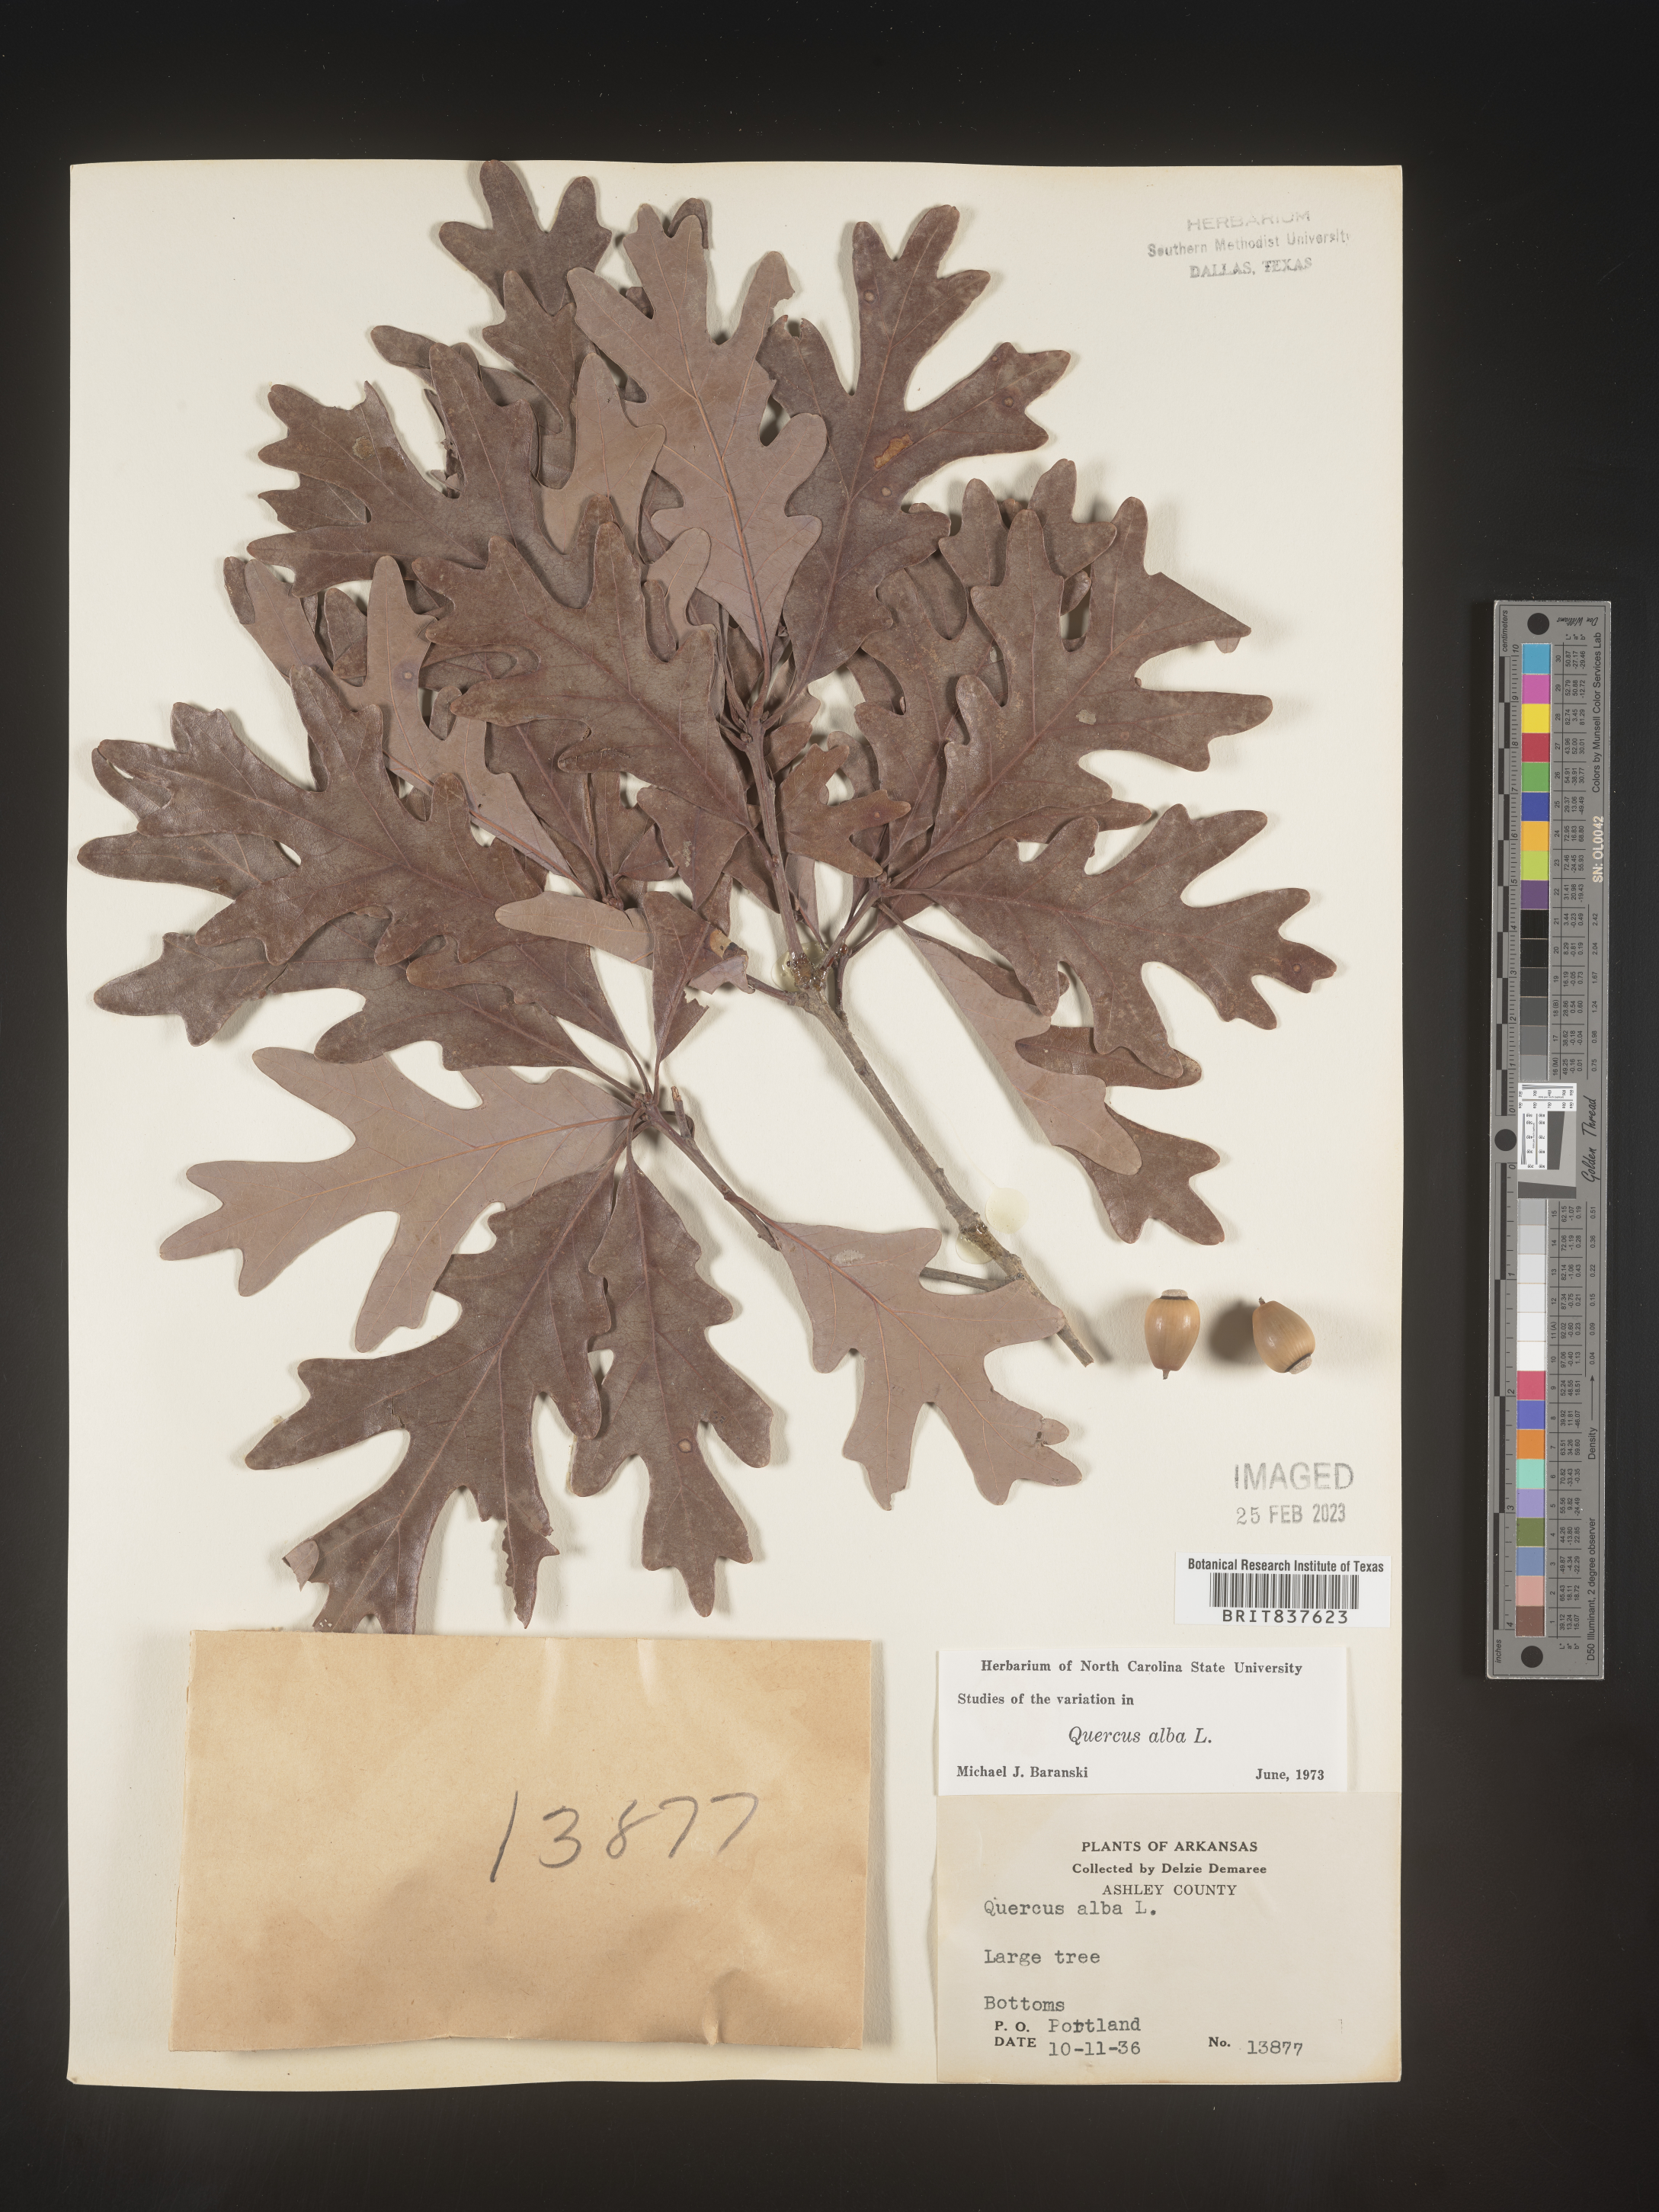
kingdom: Plantae
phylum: Tracheophyta
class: Magnoliopsida
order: Fagales
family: Fagaceae
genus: Quercus
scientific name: Quercus alba
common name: White oak
